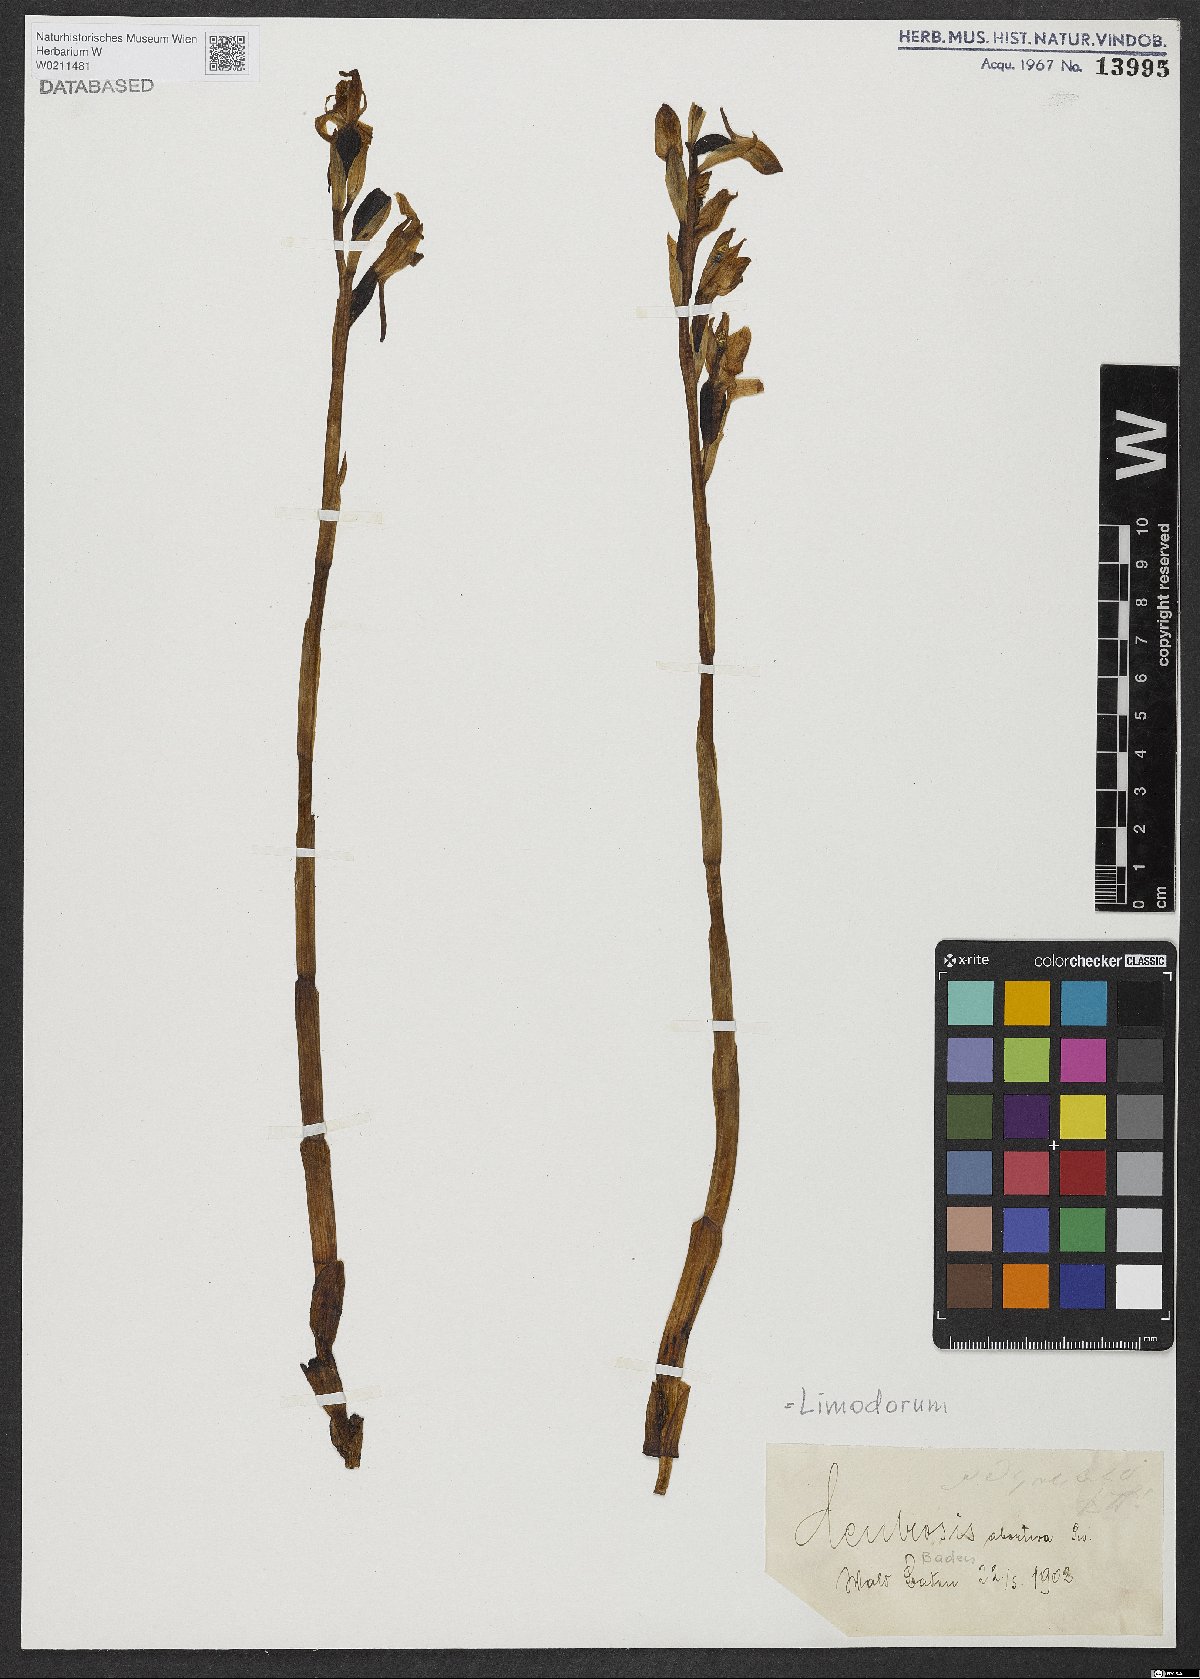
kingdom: Plantae
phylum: Tracheophyta
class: Liliopsida
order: Asparagales
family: Orchidaceae
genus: Limodorum
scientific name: Limodorum abortivum
